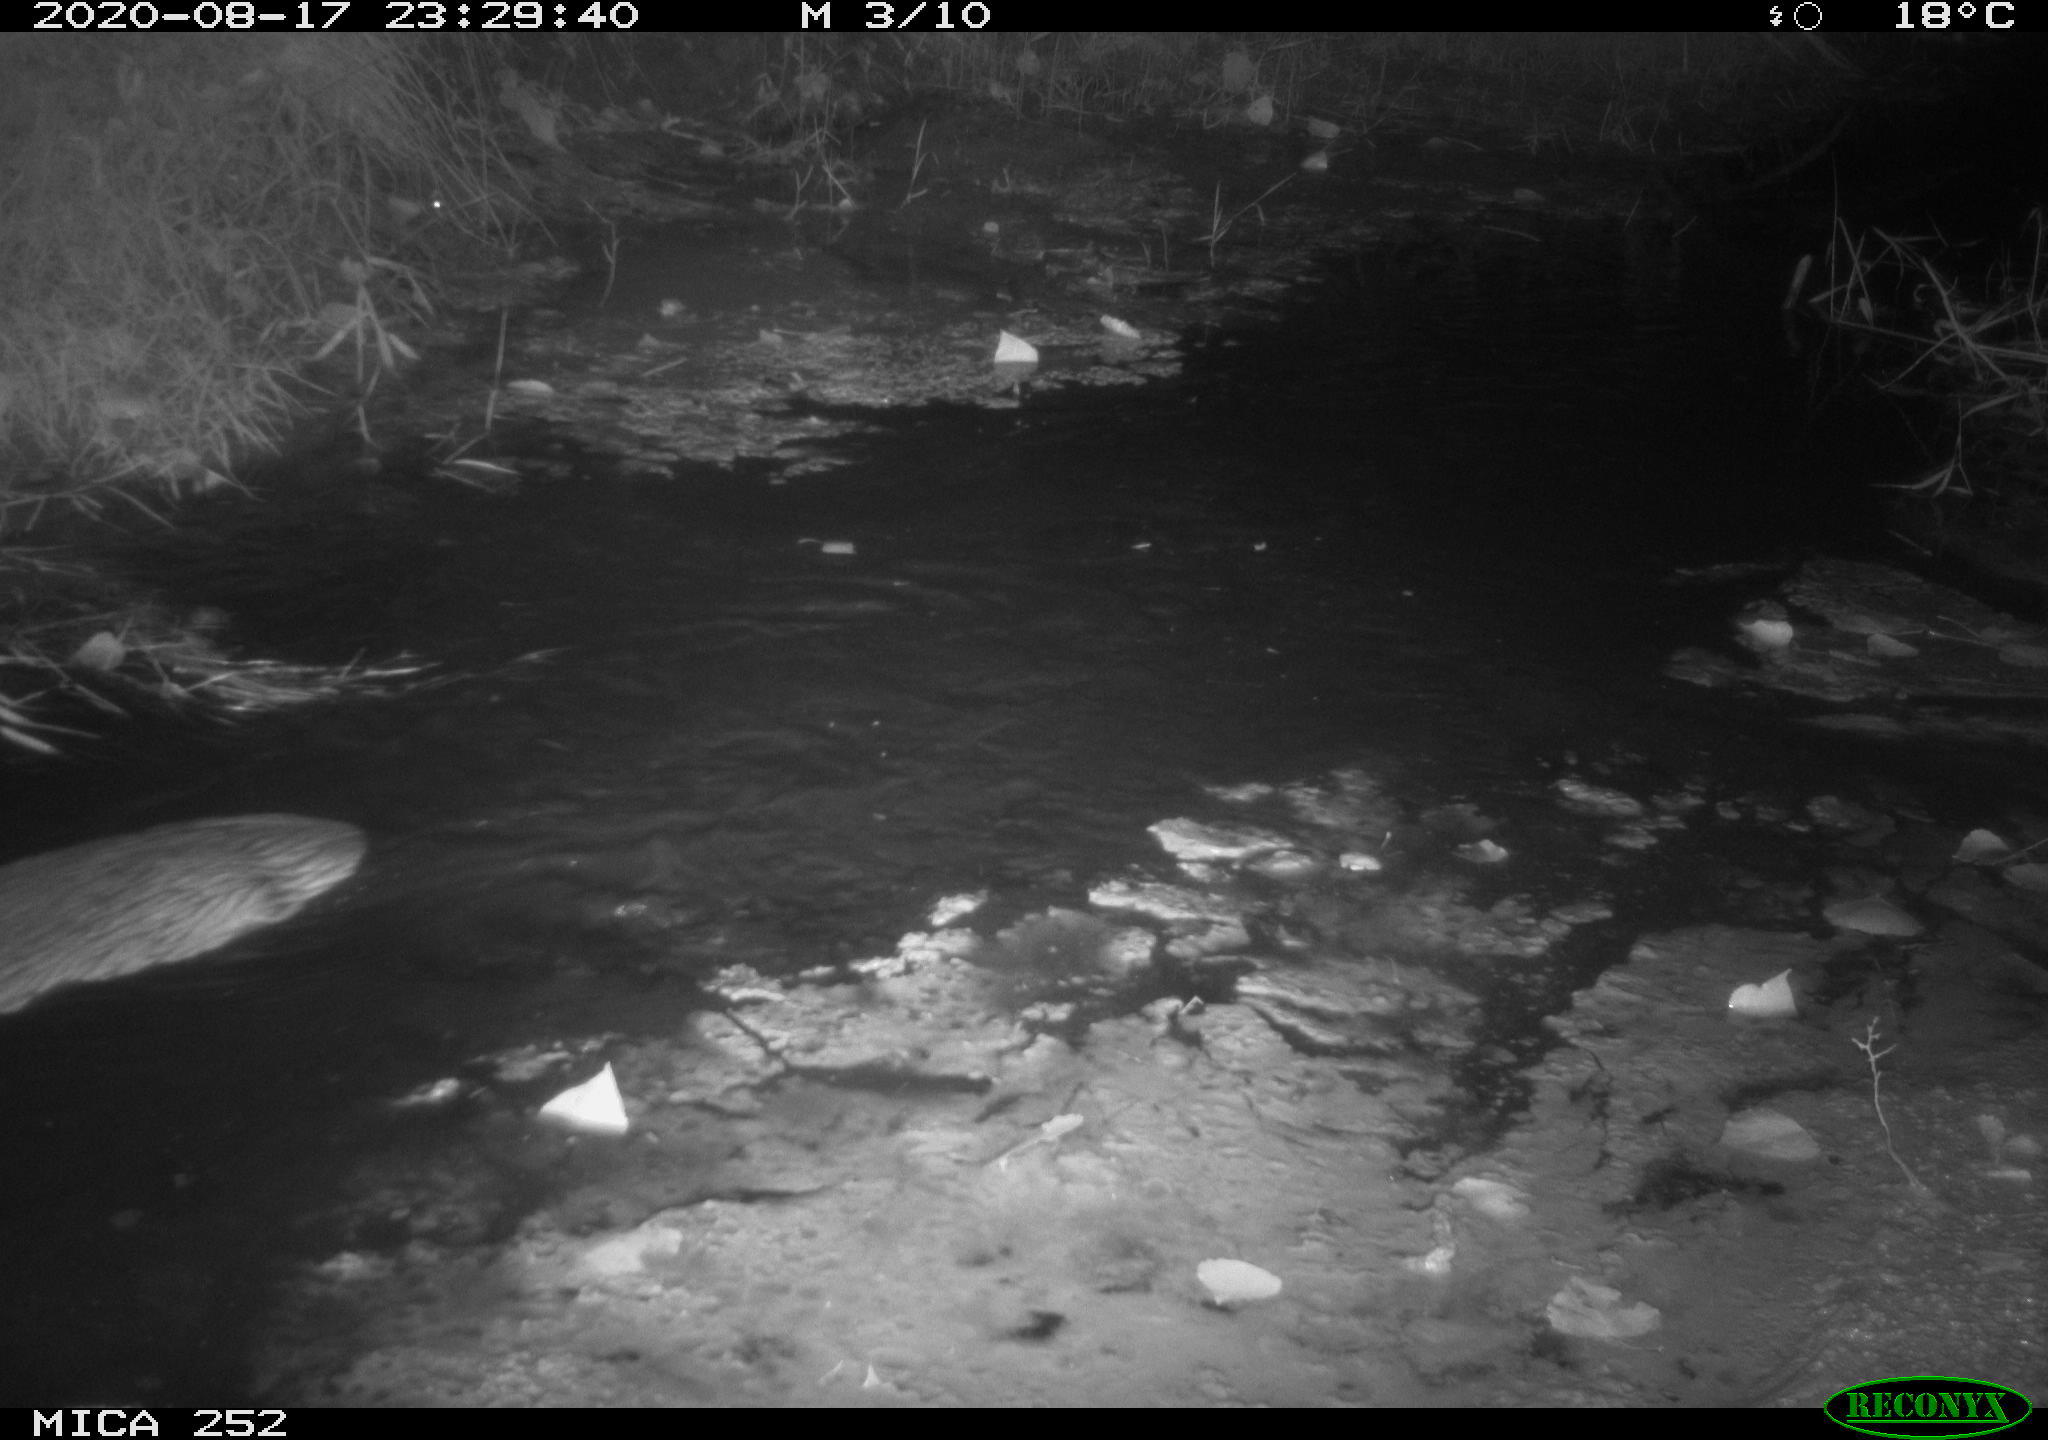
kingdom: Animalia
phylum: Chordata
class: Mammalia
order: Rodentia
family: Castoridae
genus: Castor
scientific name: Castor fiber
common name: Eurasian beaver
